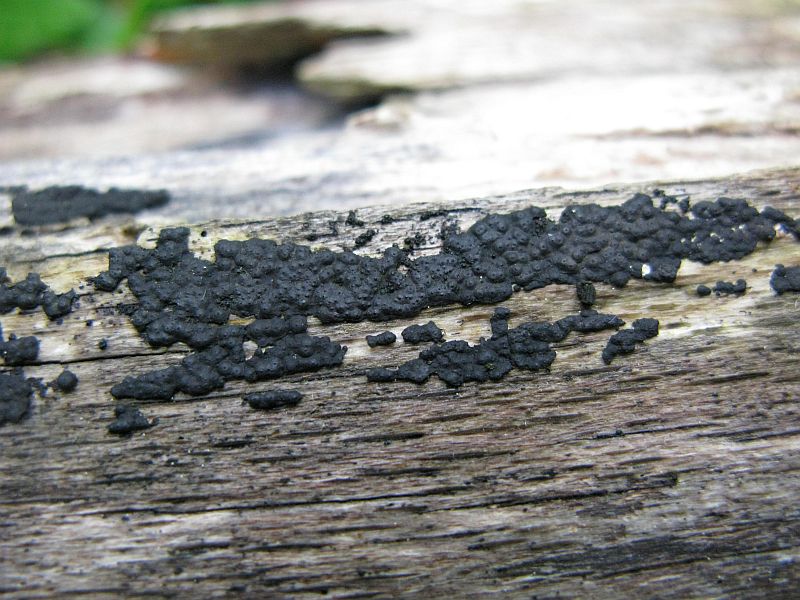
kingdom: Fungi
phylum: Ascomycota
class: Sordariomycetes
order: Xylariales
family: Xylariaceae
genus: Nemania
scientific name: Nemania serpens
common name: almindelig kuldyne
